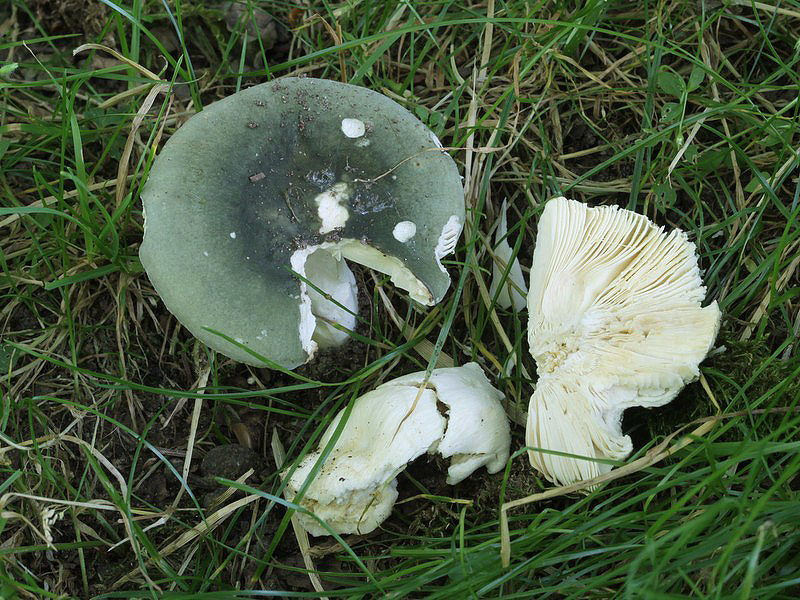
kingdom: Fungi
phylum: Basidiomycota
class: Agaricomycetes
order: Russulales
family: Russulaceae
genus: Russula
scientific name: Russula heterophylla
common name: gaffelbladet skørhat
